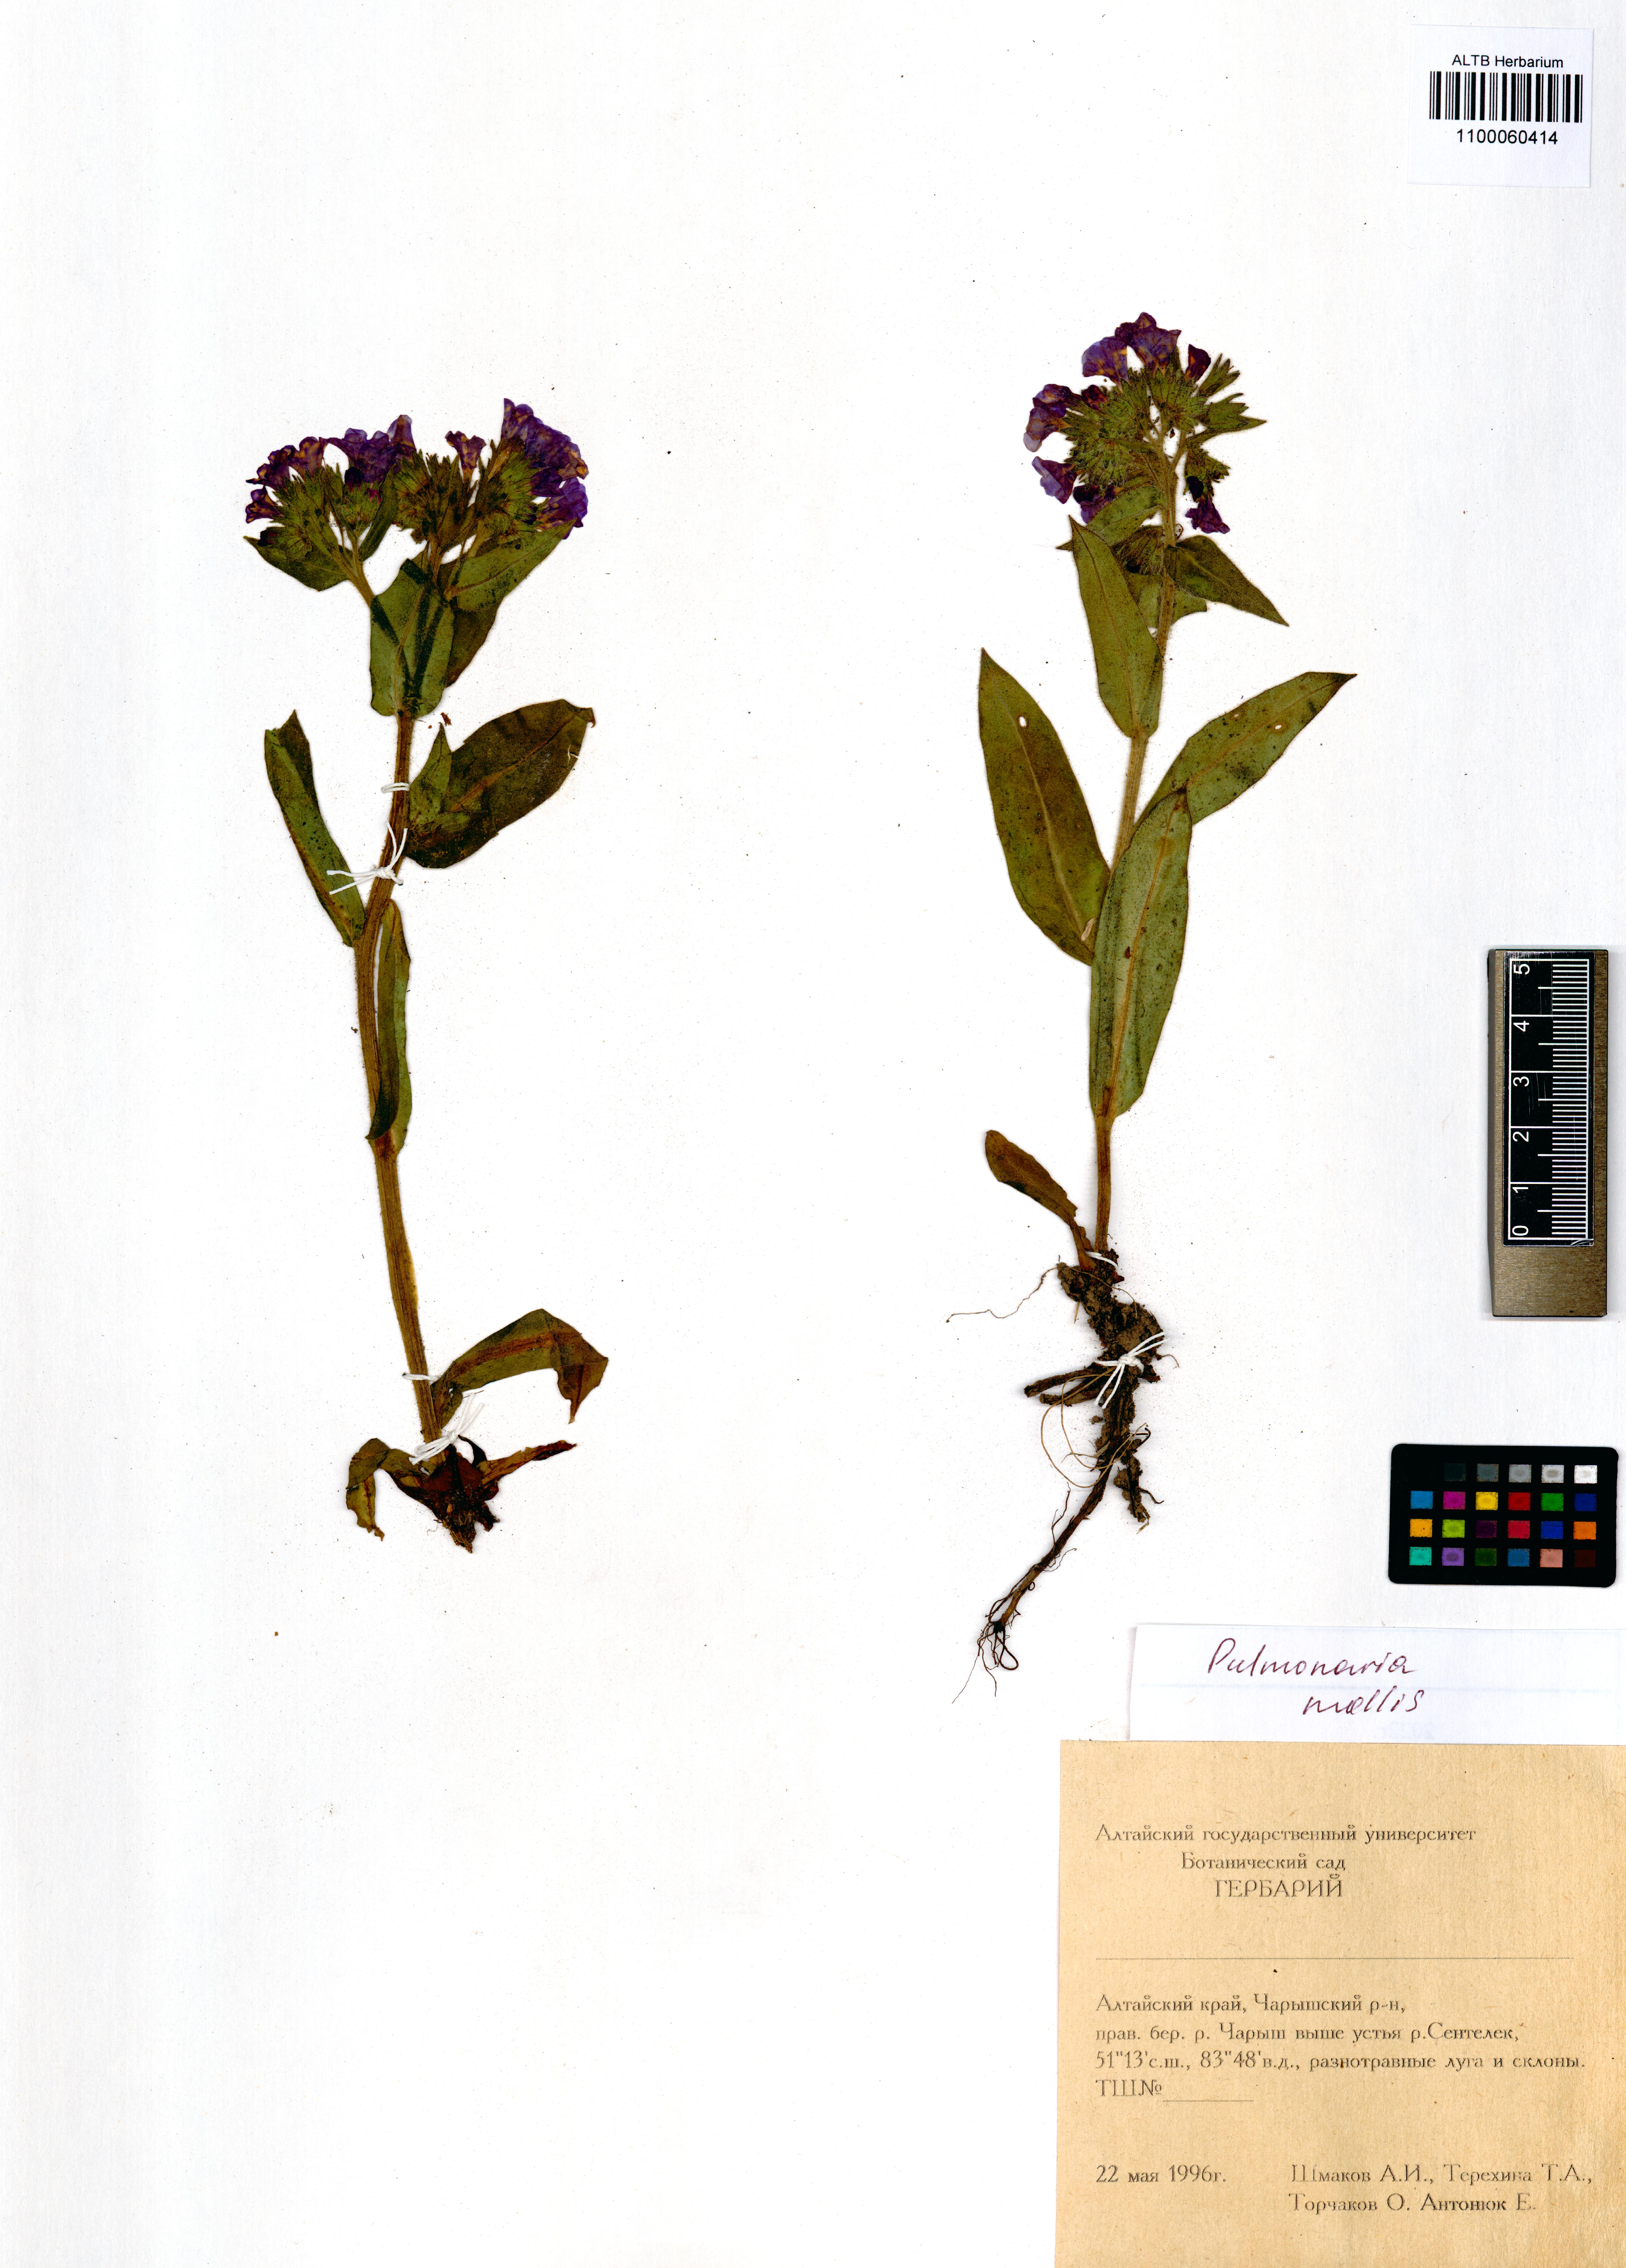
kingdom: Plantae
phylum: Tracheophyta
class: Magnoliopsida
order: Boraginales
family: Boraginaceae
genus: Pulmonaria
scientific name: Pulmonaria mollis
